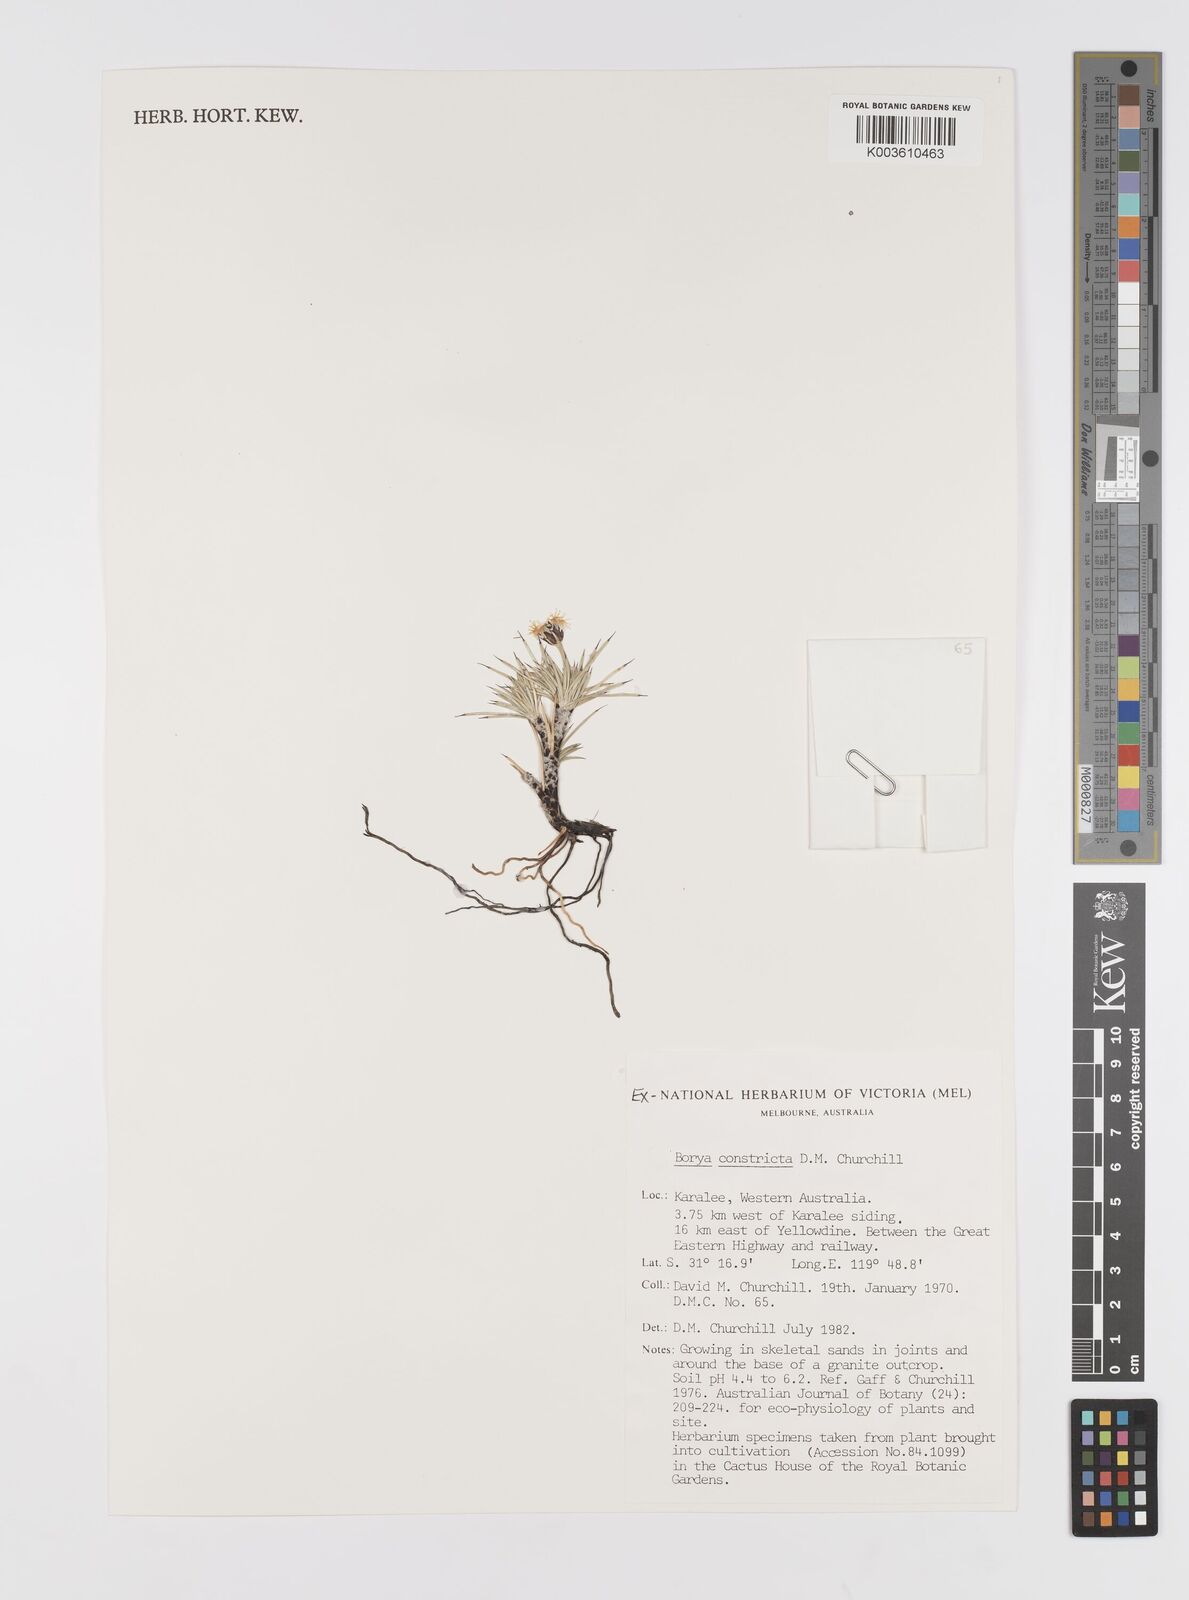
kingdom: Plantae
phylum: Tracheophyta
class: Liliopsida
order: Asparagales
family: Boryaceae
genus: Borya
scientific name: Borya constricta
